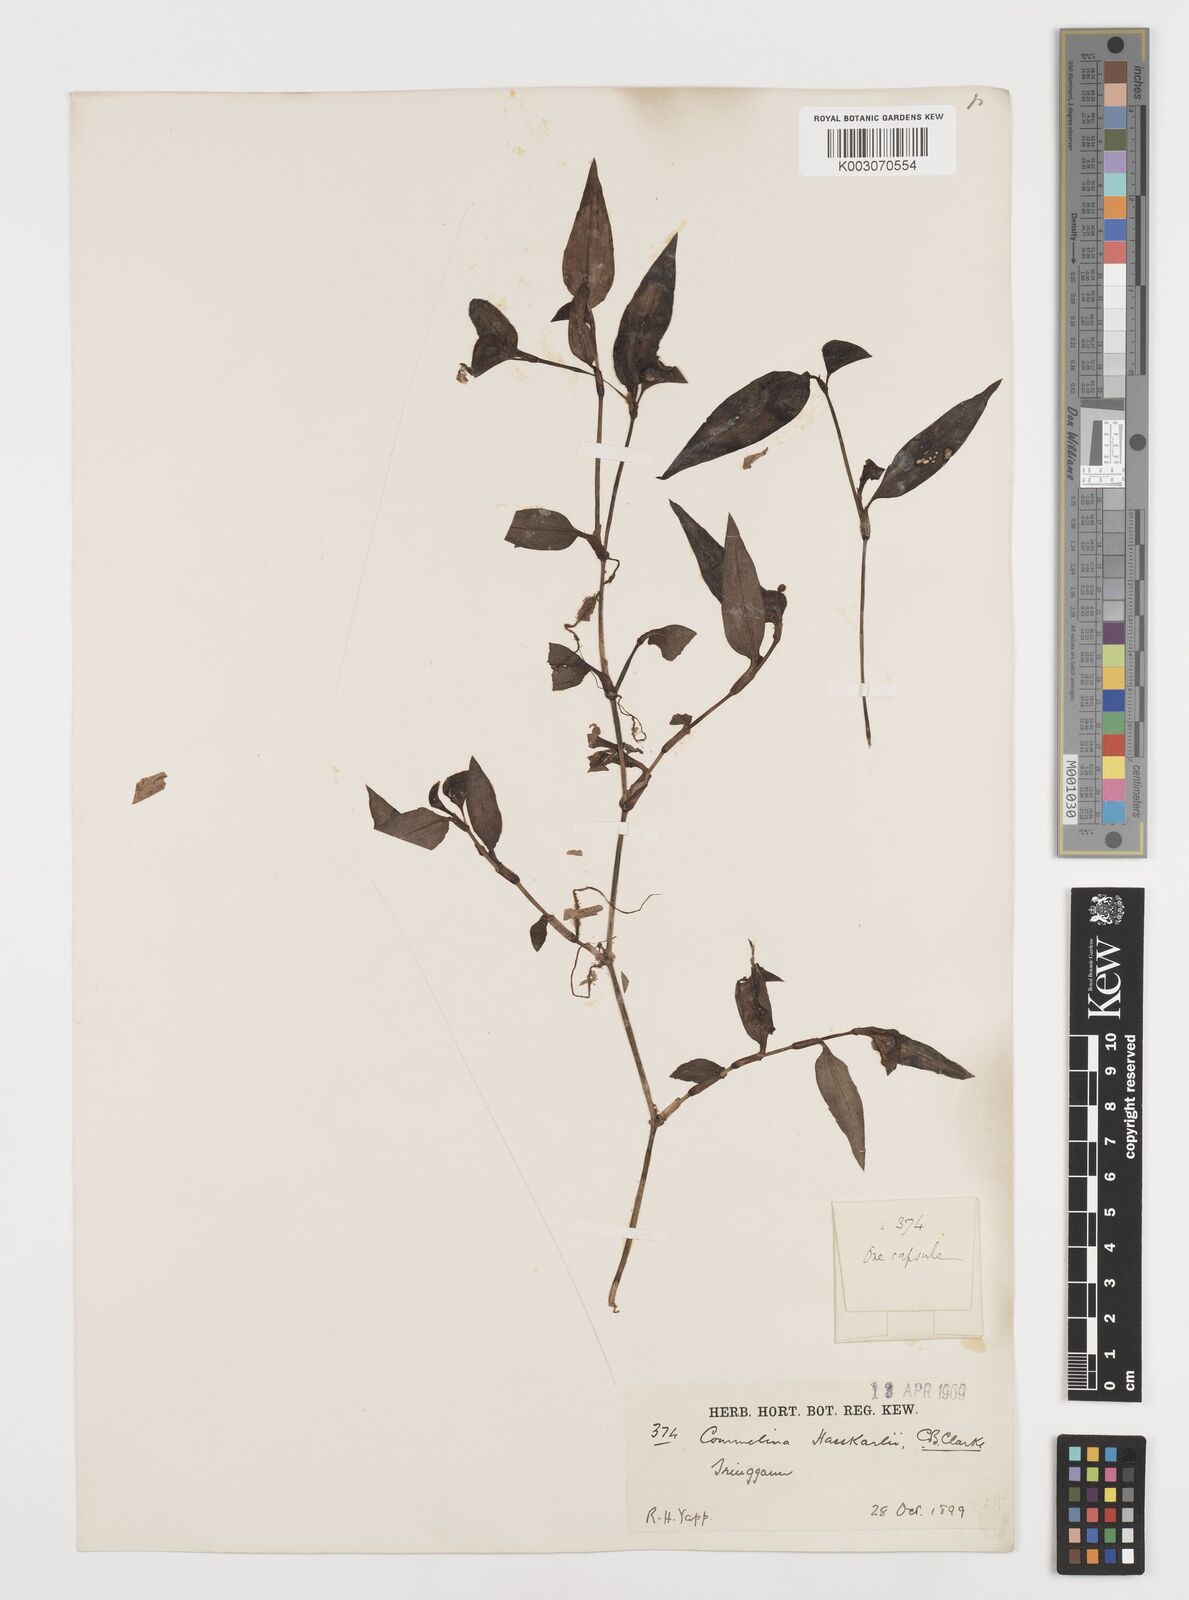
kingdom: Plantae
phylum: Tracheophyta
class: Liliopsida
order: Commelinales
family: Commelinaceae
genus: Commelina
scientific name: Commelina caroliniana
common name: Carolina dayflower
